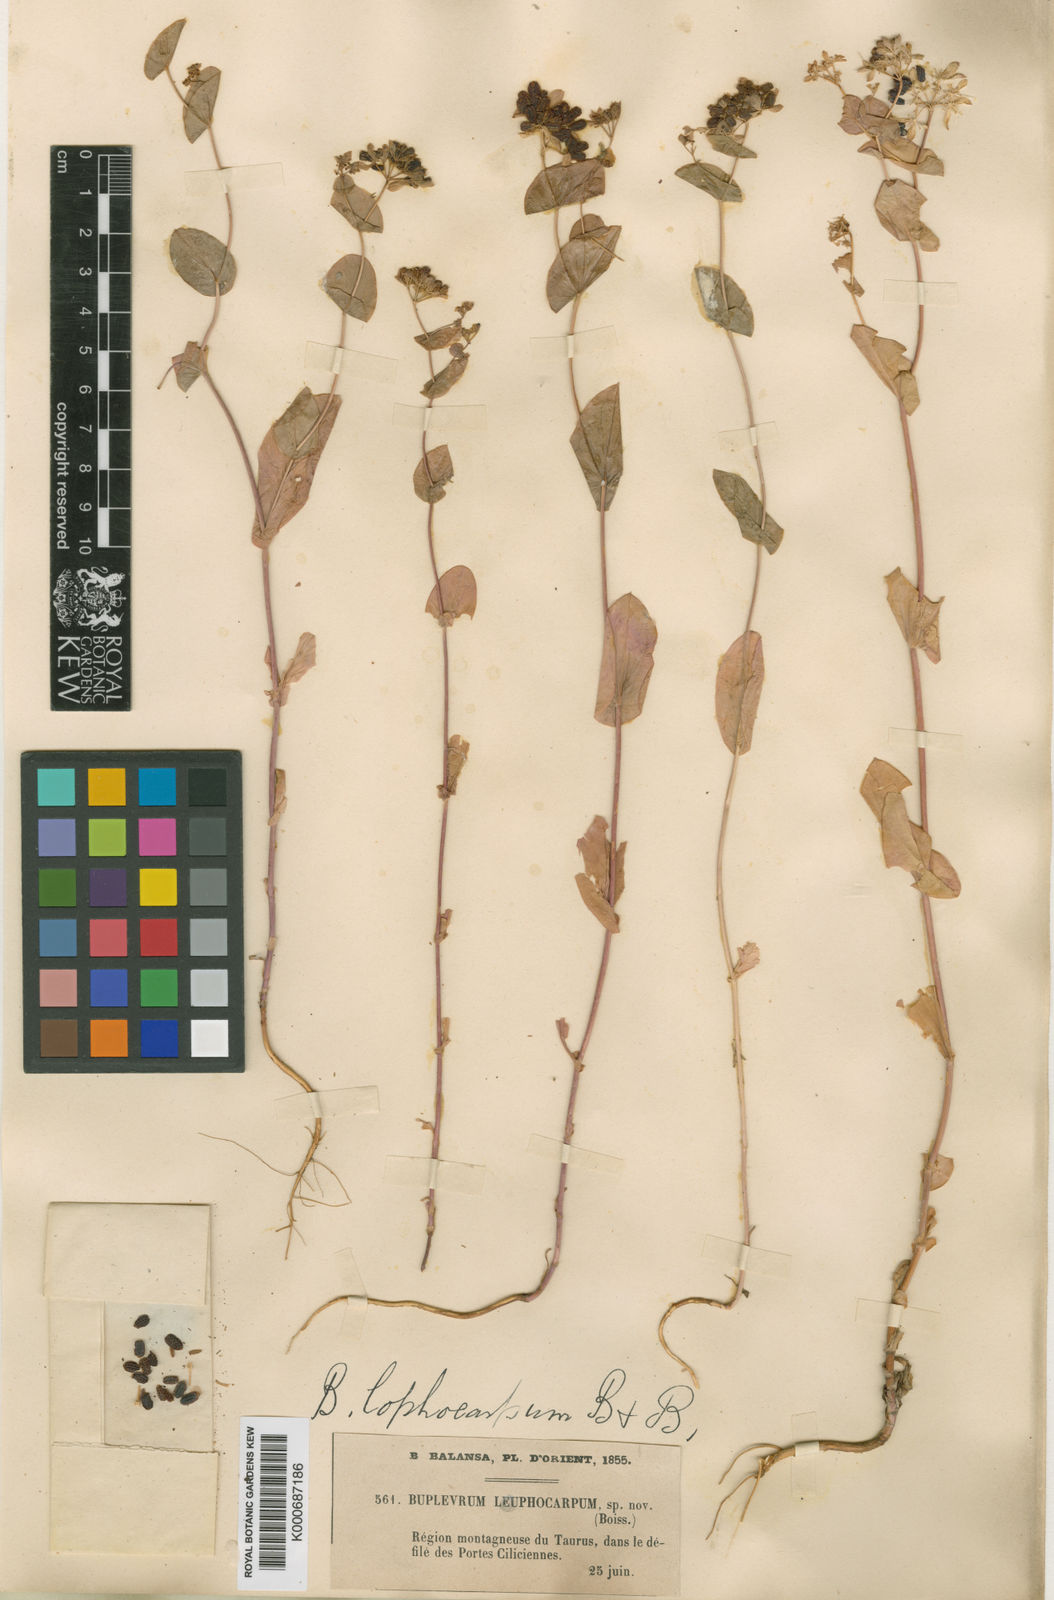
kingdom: Plantae
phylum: Tracheophyta
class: Magnoliopsida
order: Apiales
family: Apiaceae
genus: Bupleurum
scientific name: Bupleurum lophocarpum
